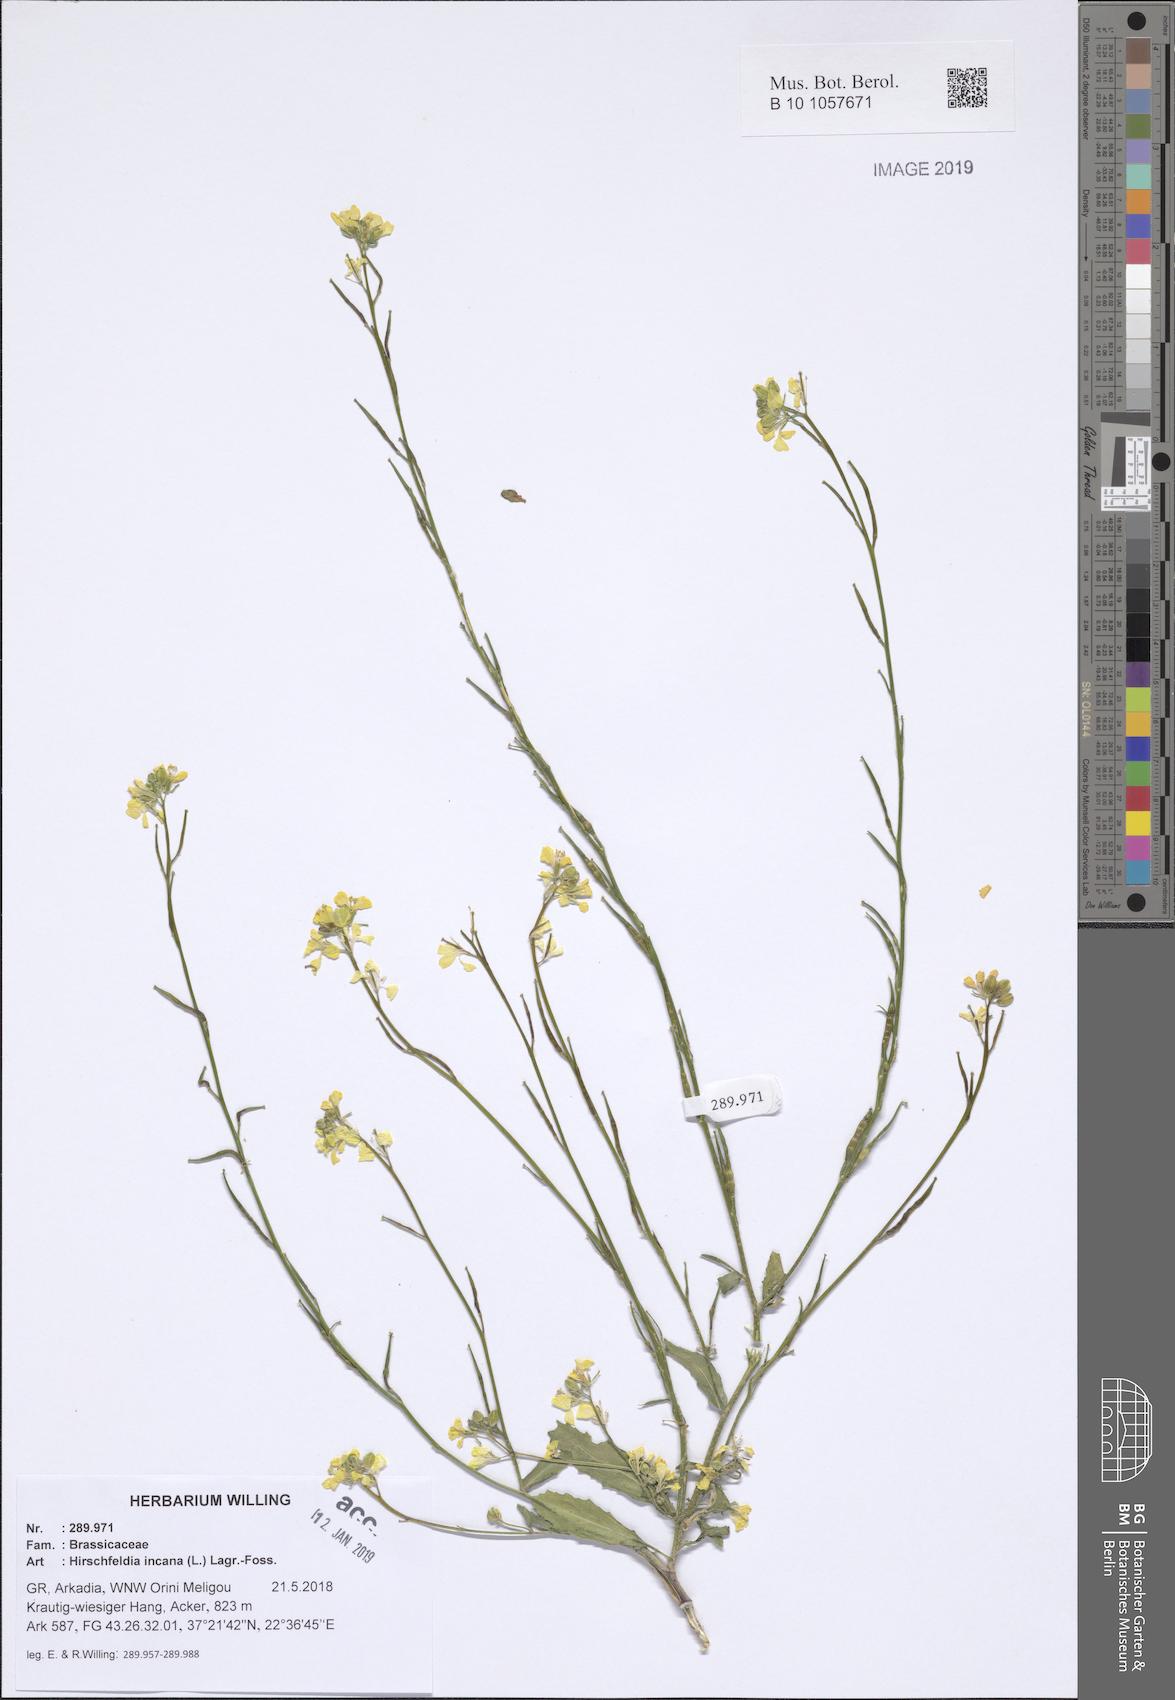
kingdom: Plantae
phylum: Tracheophyta
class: Magnoliopsida
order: Brassicales
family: Brassicaceae
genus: Hirschfeldia
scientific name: Hirschfeldia incana
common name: Hoary mustard
